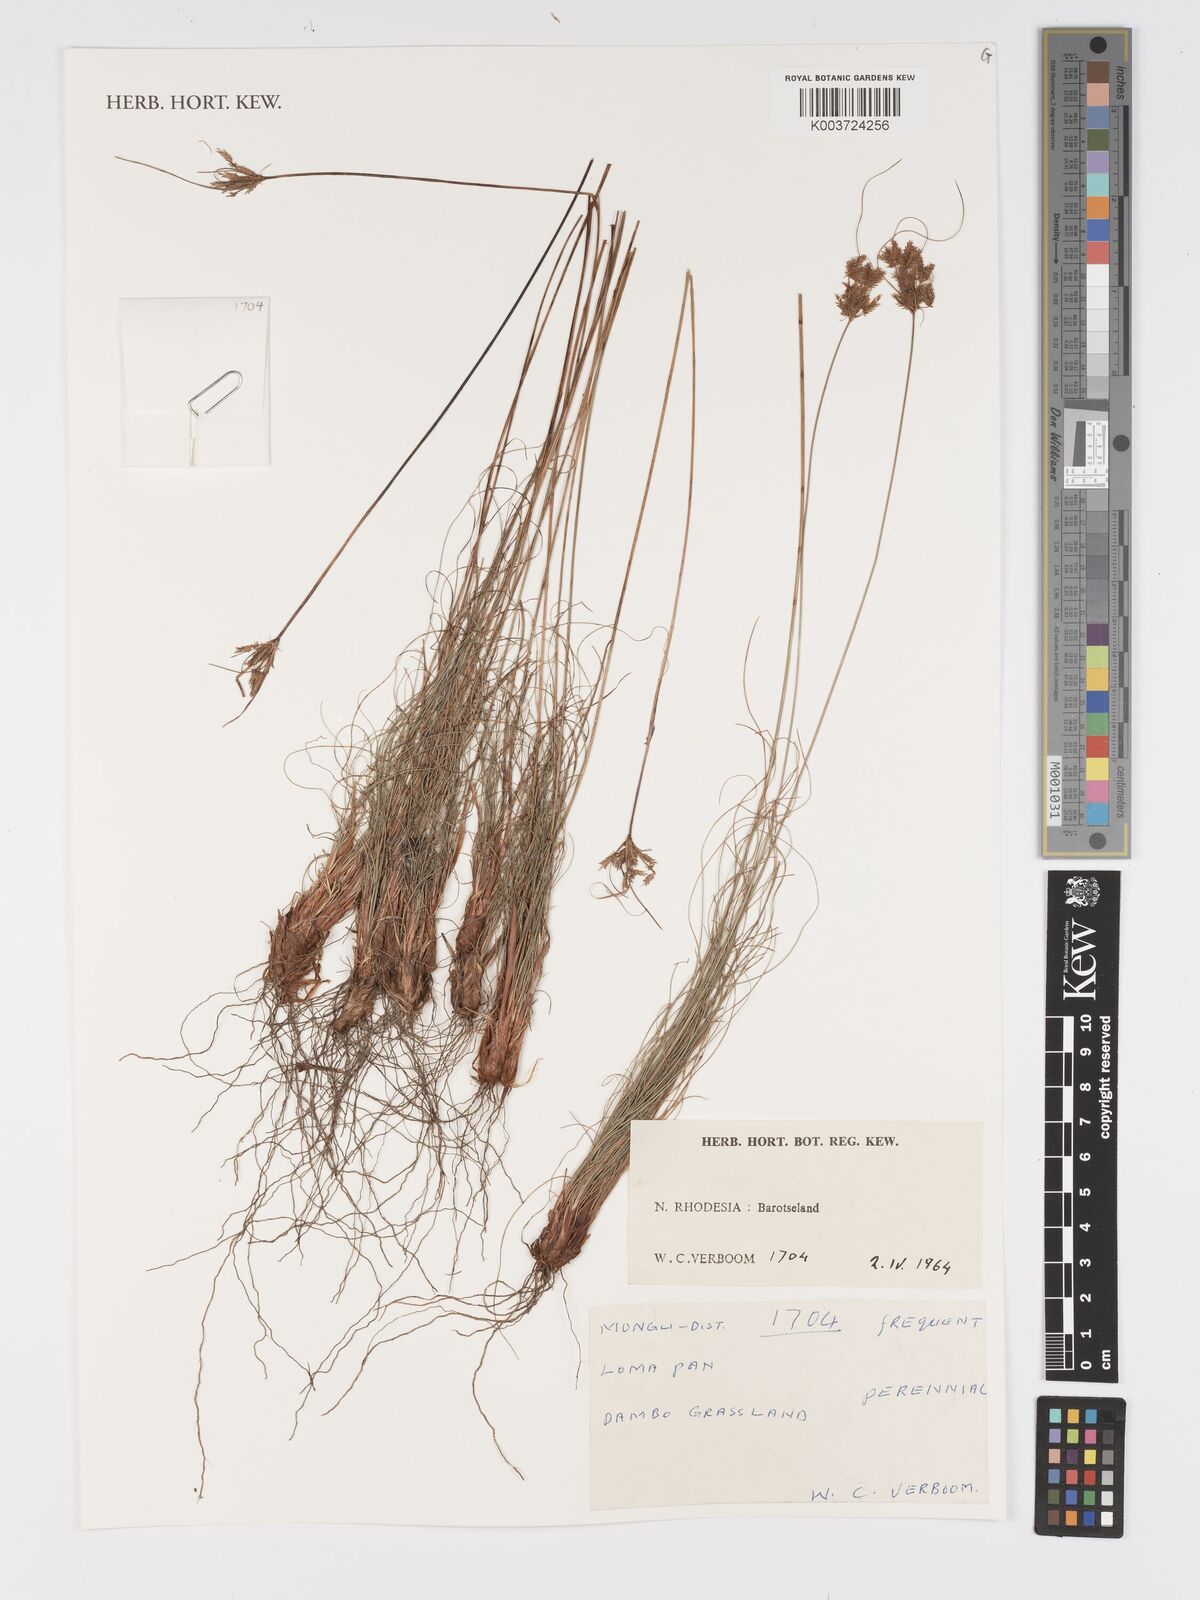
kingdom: Plantae
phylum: Tracheophyta
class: Liliopsida
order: Poales
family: Cyperaceae
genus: Cyperus
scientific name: Cyperus
